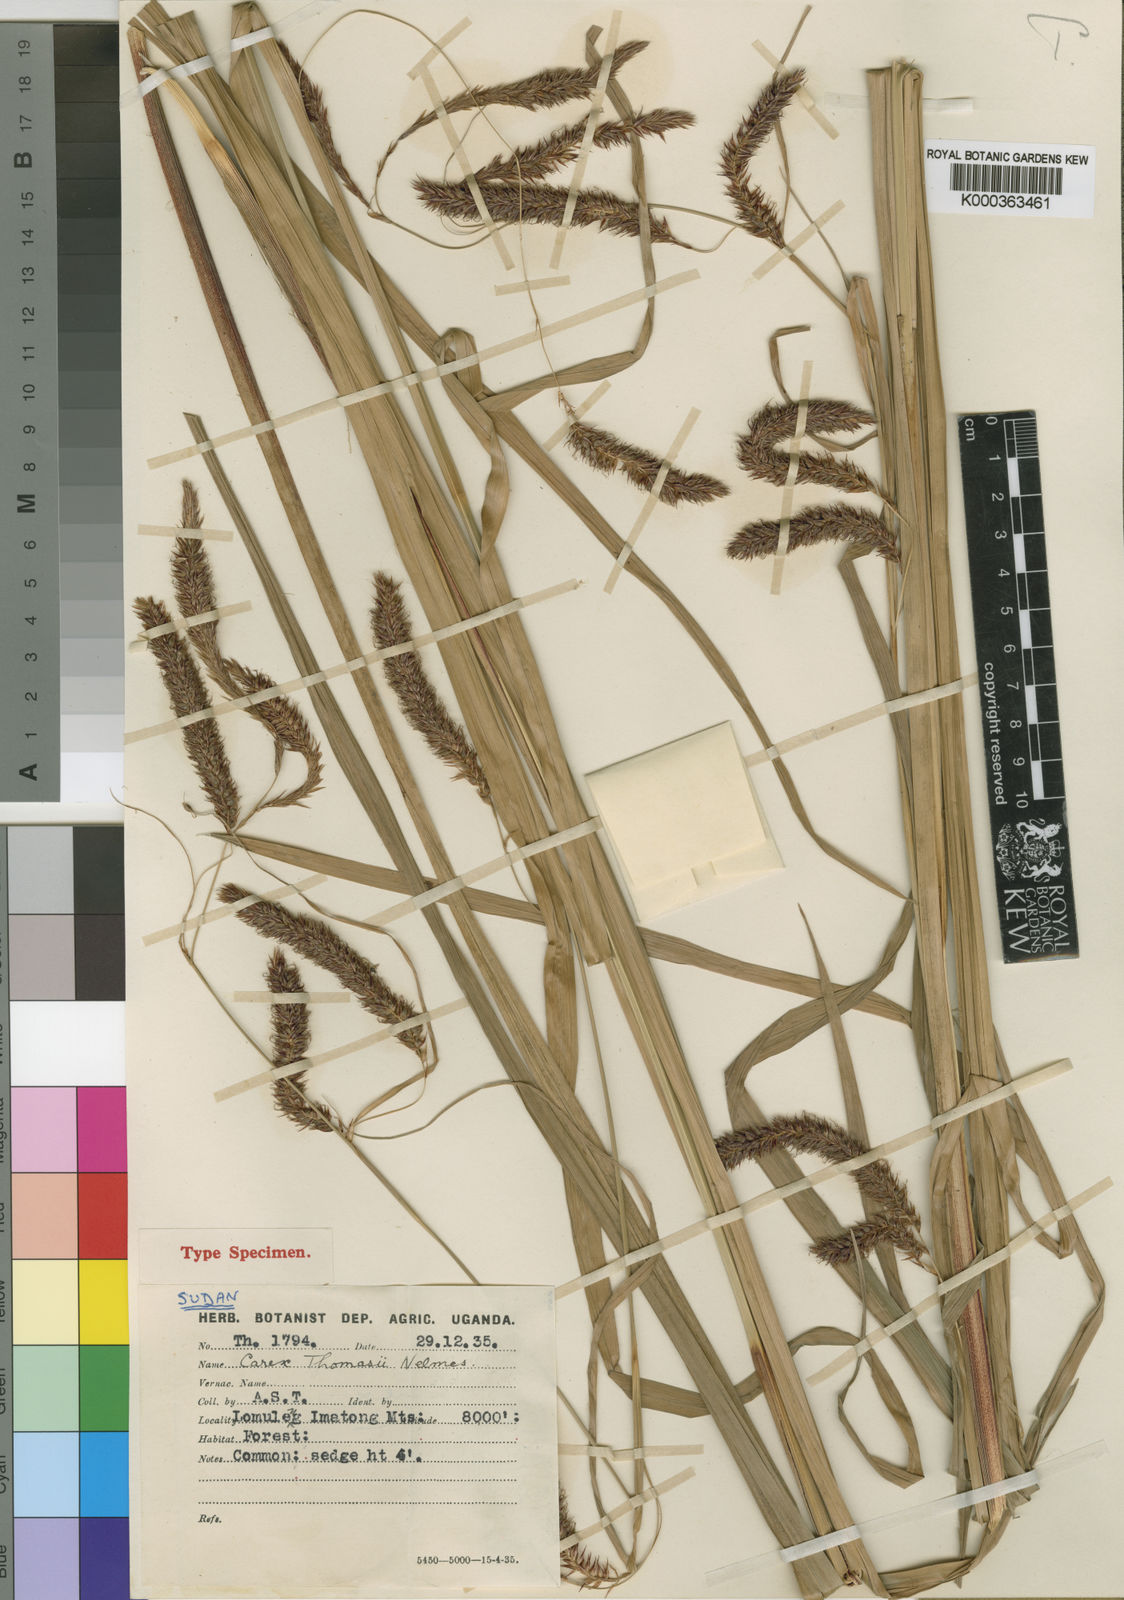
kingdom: Plantae
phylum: Tracheophyta
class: Liliopsida
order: Poales
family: Cyperaceae
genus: Carex
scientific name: Carex mannii
